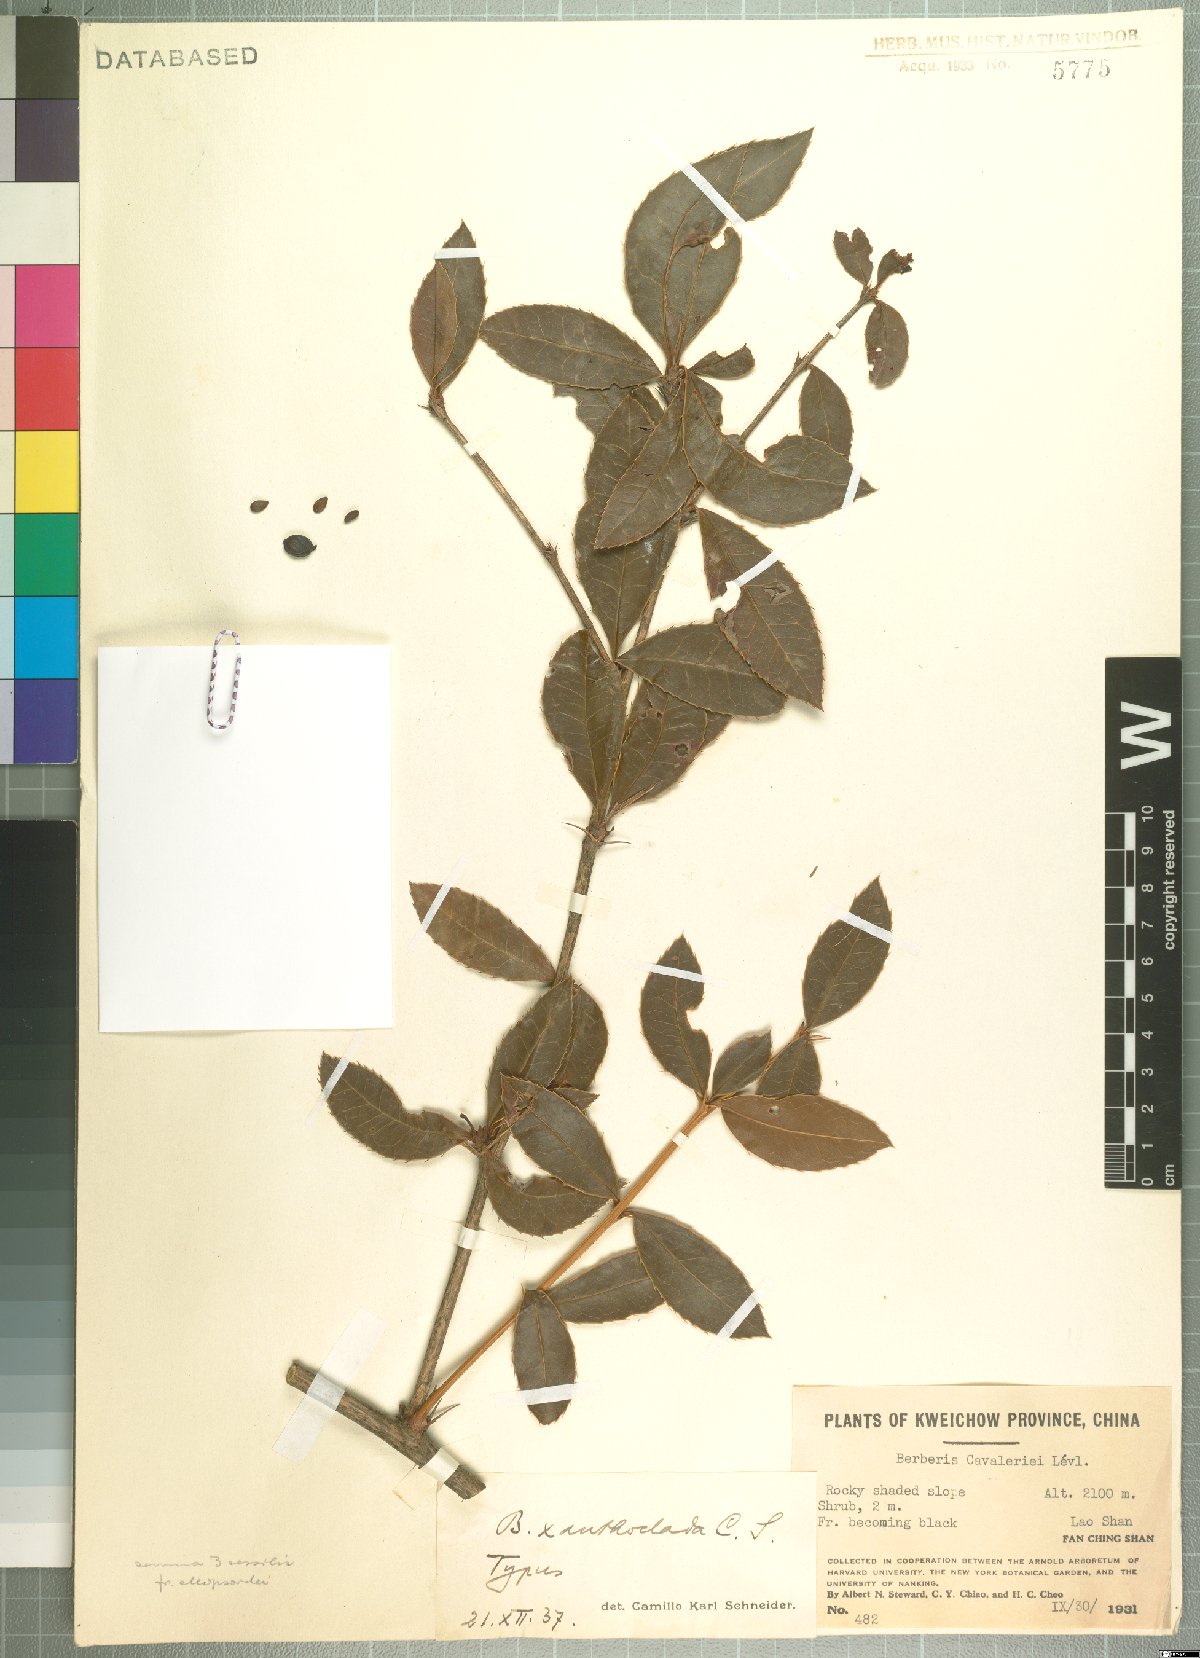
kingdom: Plantae
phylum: Tracheophyta
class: Magnoliopsida
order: Ranunculales
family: Berberidaceae
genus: Berberis
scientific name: Berberis xanthoclada
